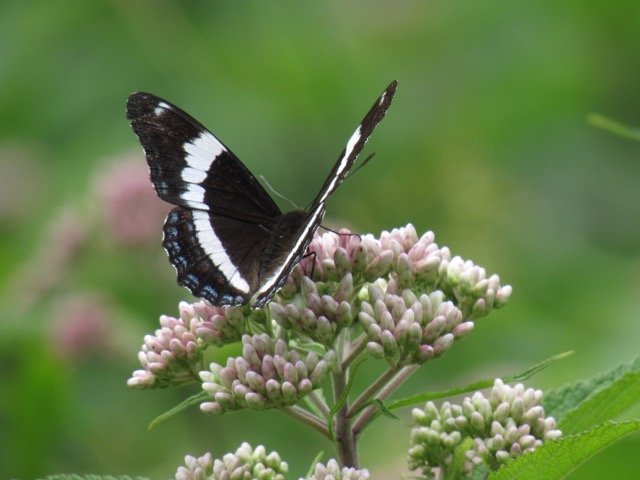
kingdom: Animalia
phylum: Arthropoda
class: Insecta
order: Lepidoptera
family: Nymphalidae
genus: Limenitis
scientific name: Limenitis
